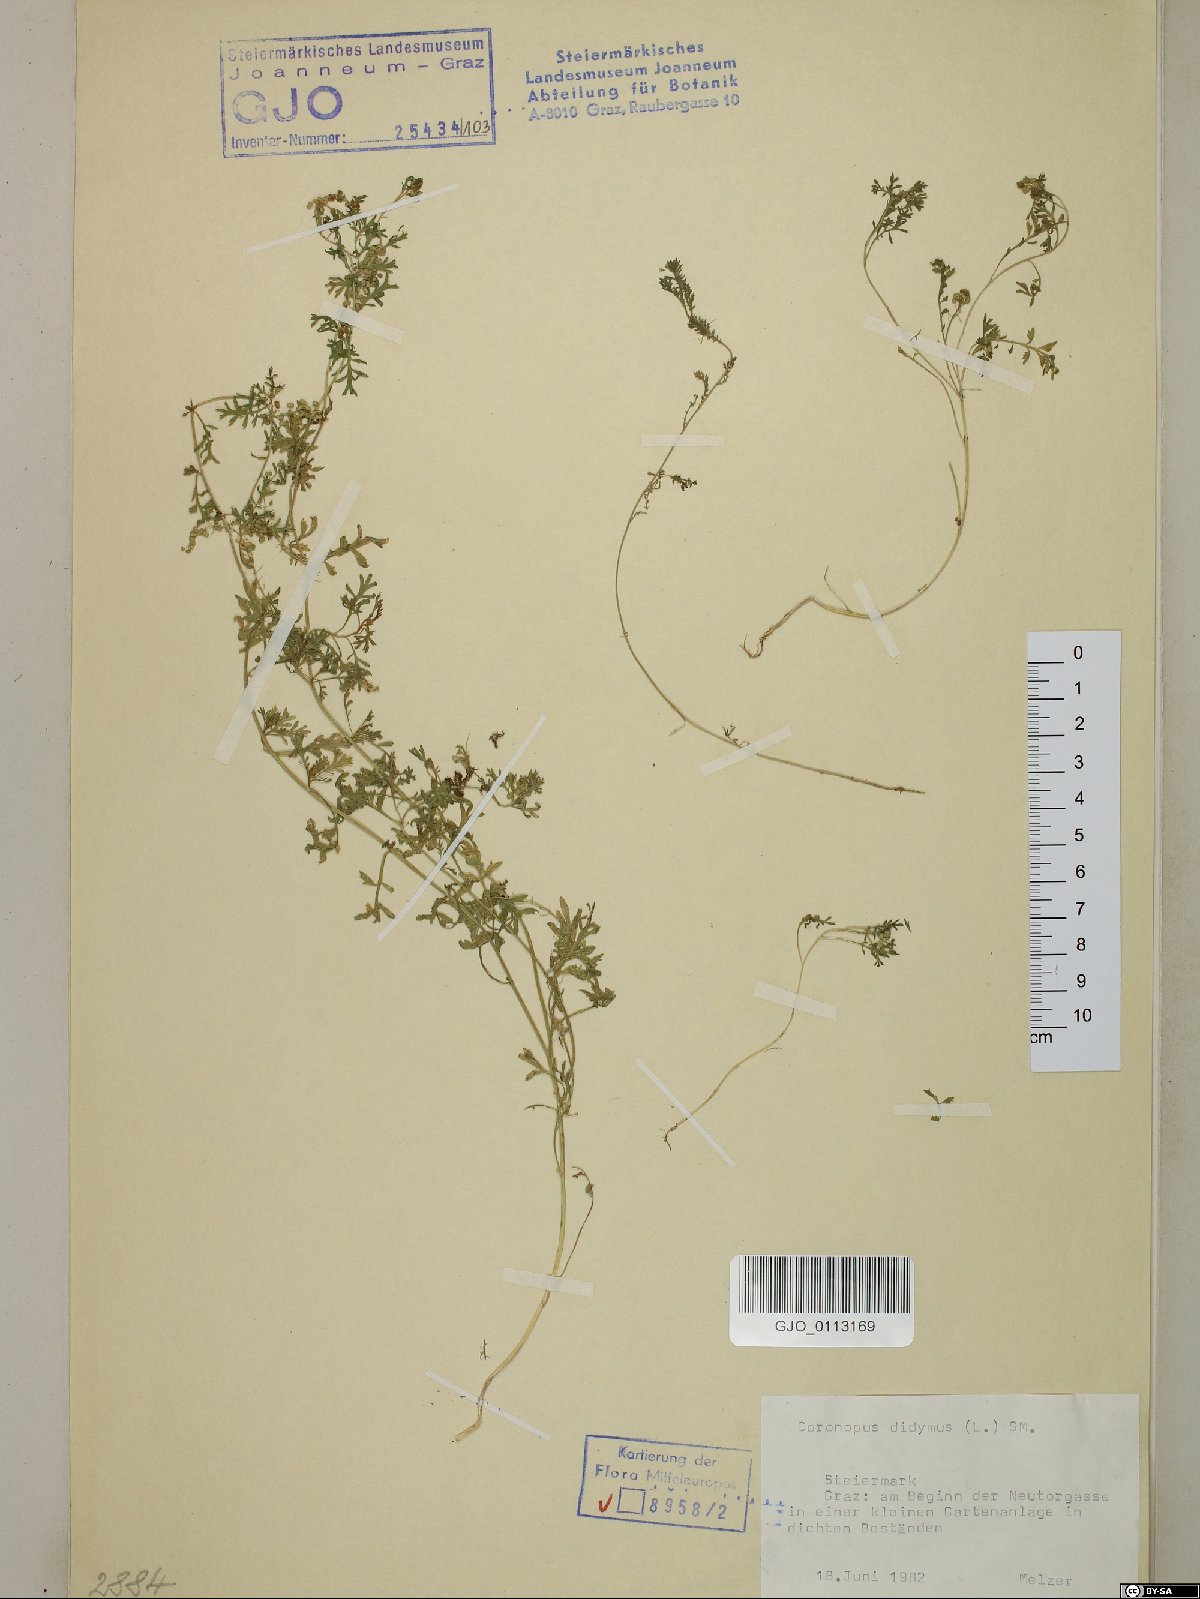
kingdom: Plantae
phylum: Tracheophyta
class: Magnoliopsida
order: Brassicales
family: Brassicaceae
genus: Lepidium
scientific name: Lepidium didymum
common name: Lesser swinecress
